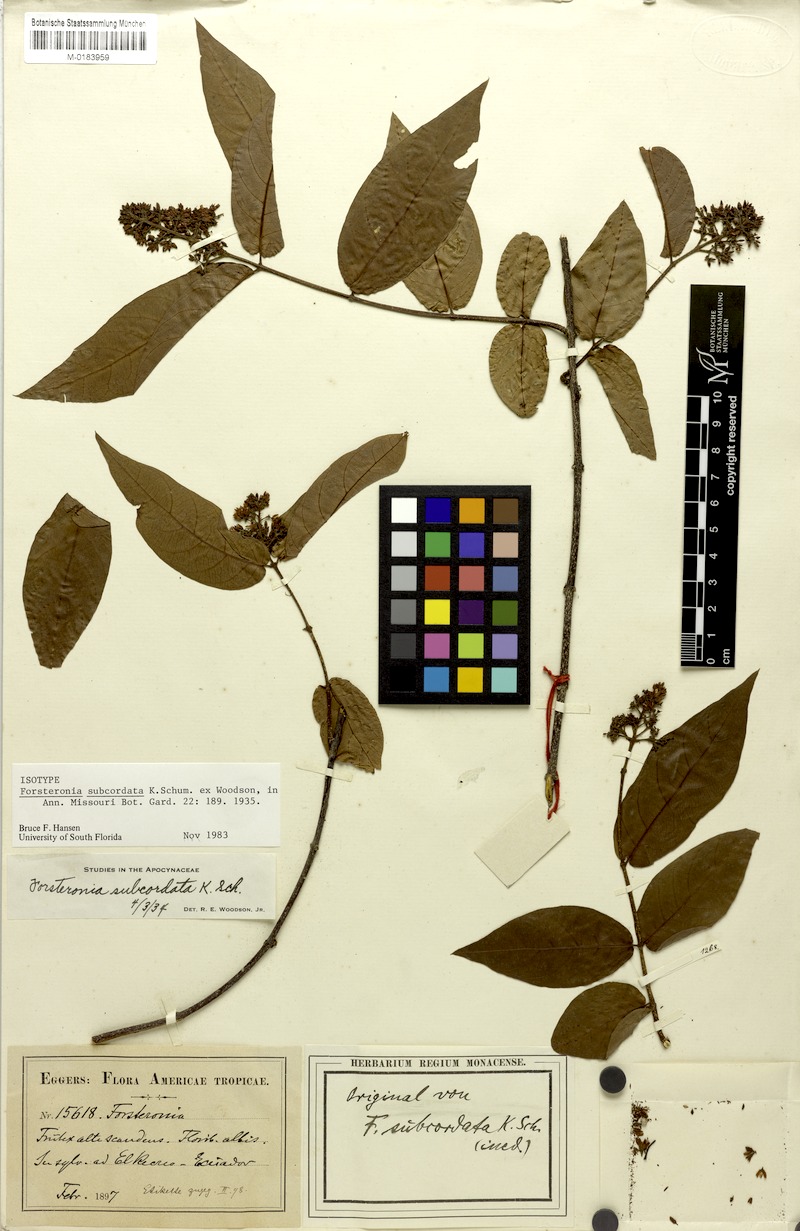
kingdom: Plantae
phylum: Tracheophyta
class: Magnoliopsida
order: Gentianales
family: Apocynaceae
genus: Forsteronia
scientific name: Forsteronia subcordata
